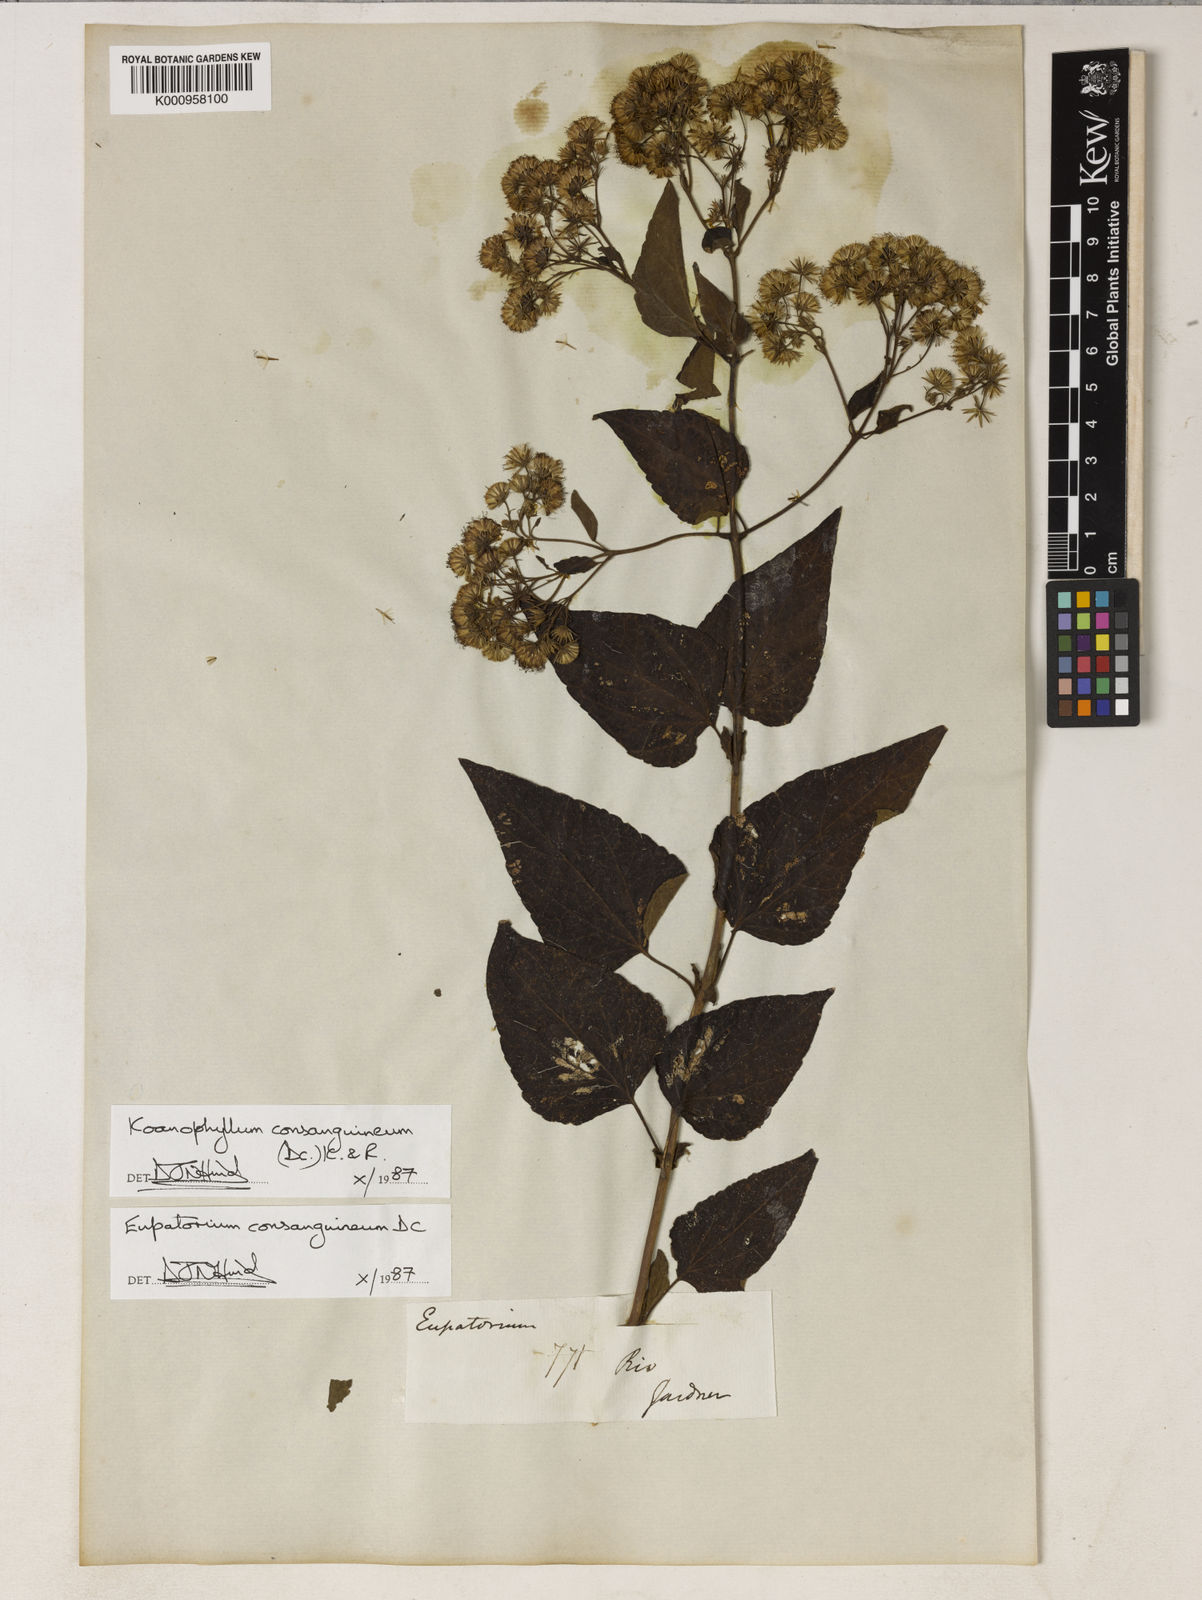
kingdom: Plantae
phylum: Tracheophyta
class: Magnoliopsida
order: Asterales
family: Asteraceae
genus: Koanophyllon
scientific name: Koanophyllon consanguineum
